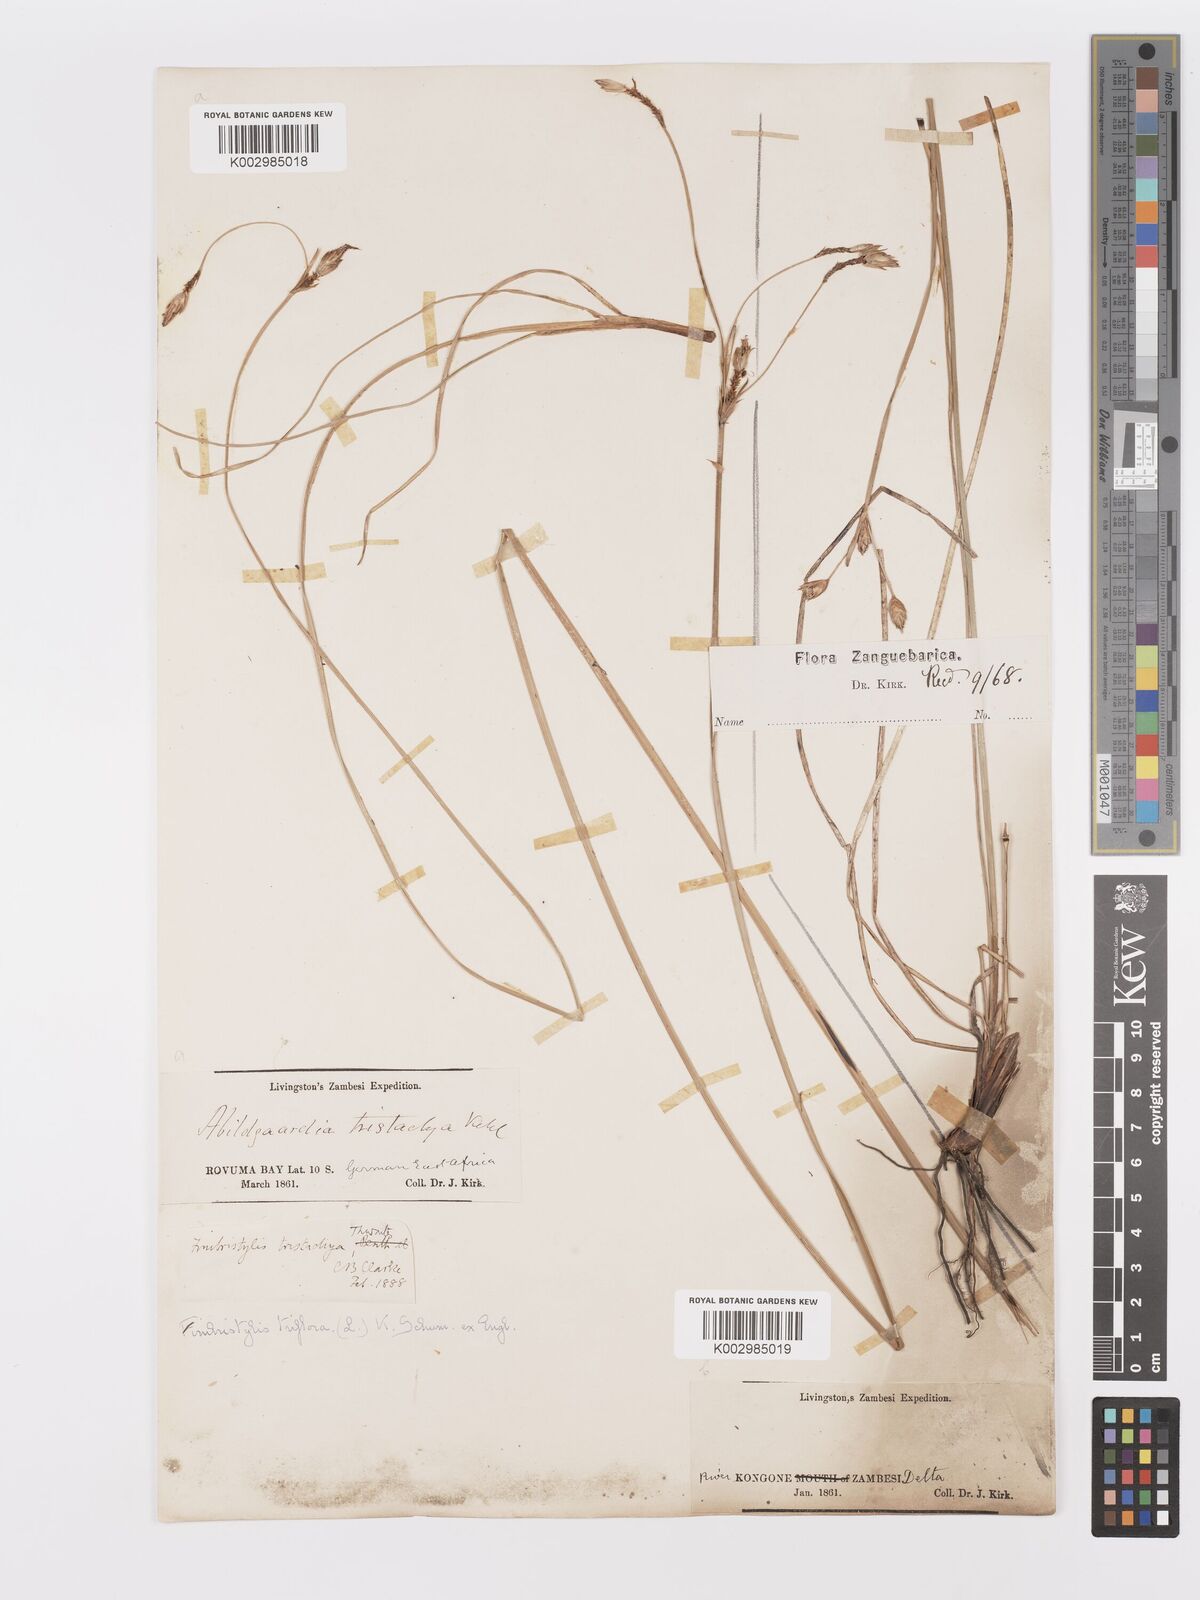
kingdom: Plantae
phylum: Tracheophyta
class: Liliopsida
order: Poales
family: Cyperaceae
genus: Abildgaardia
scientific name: Abildgaardia triflora
